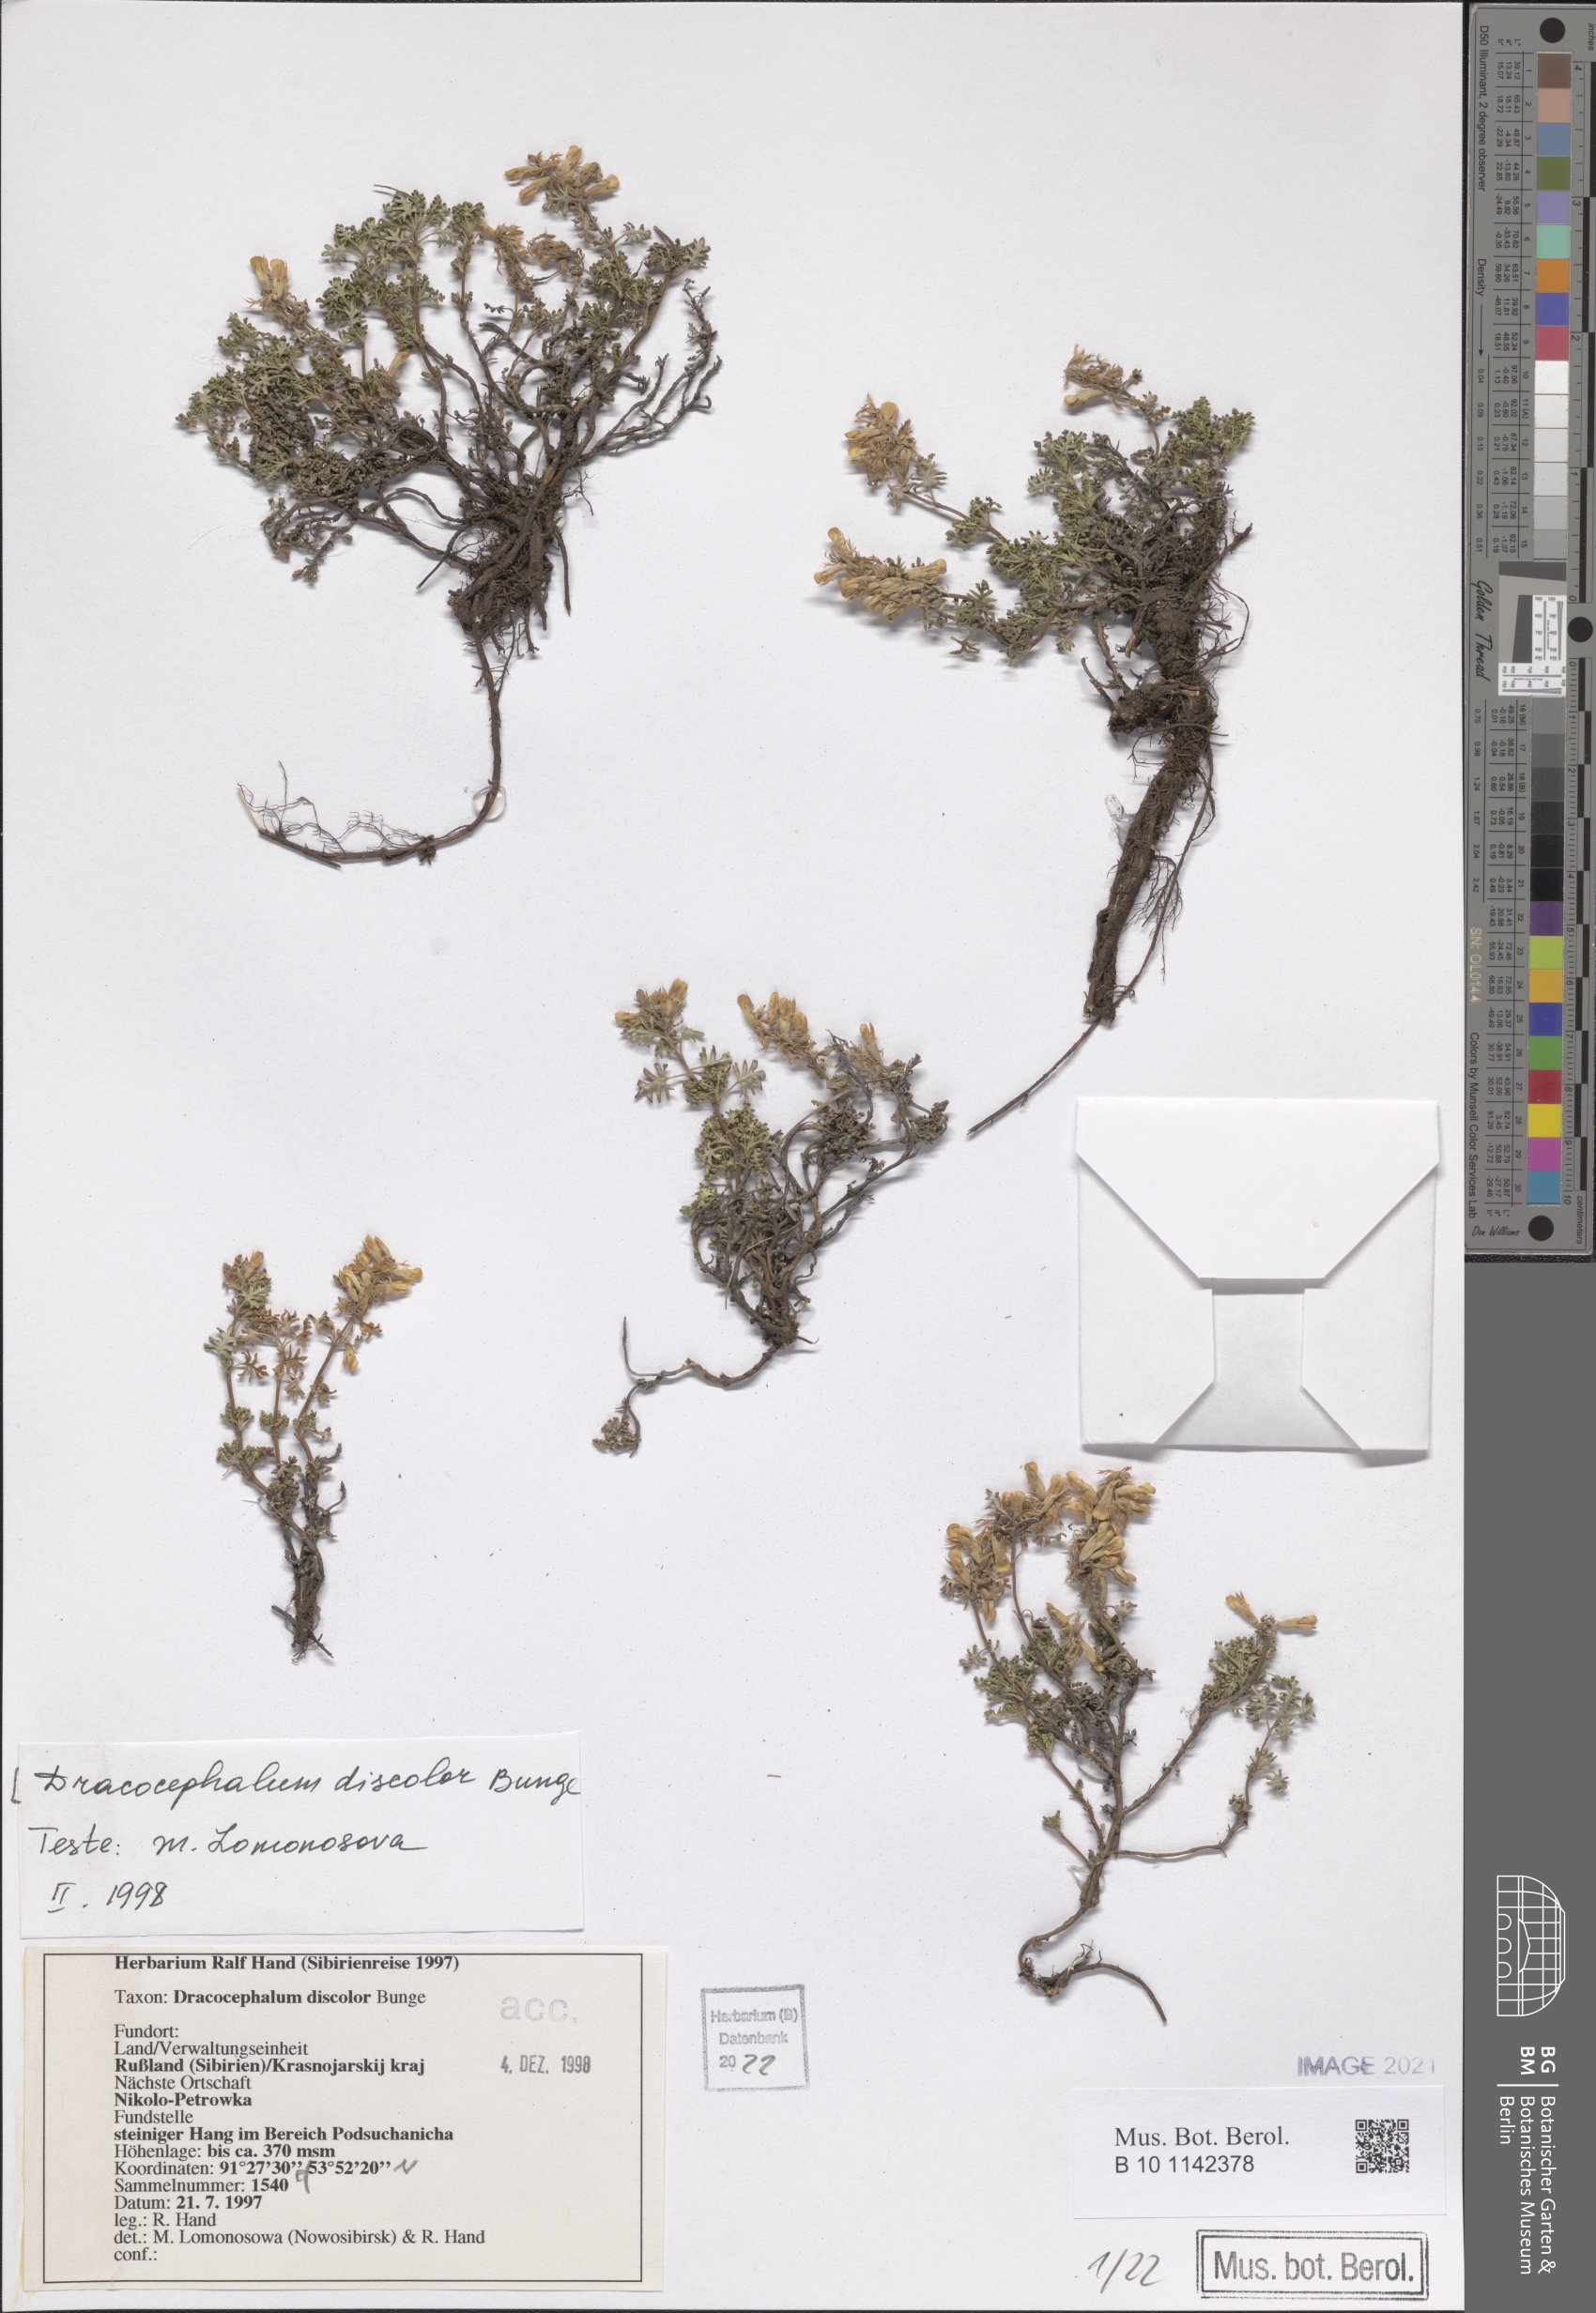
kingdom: Plantae
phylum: Tracheophyta
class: Magnoliopsida
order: Lamiales
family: Lamiaceae
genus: Dracocephalum
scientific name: Dracocephalum discolor
